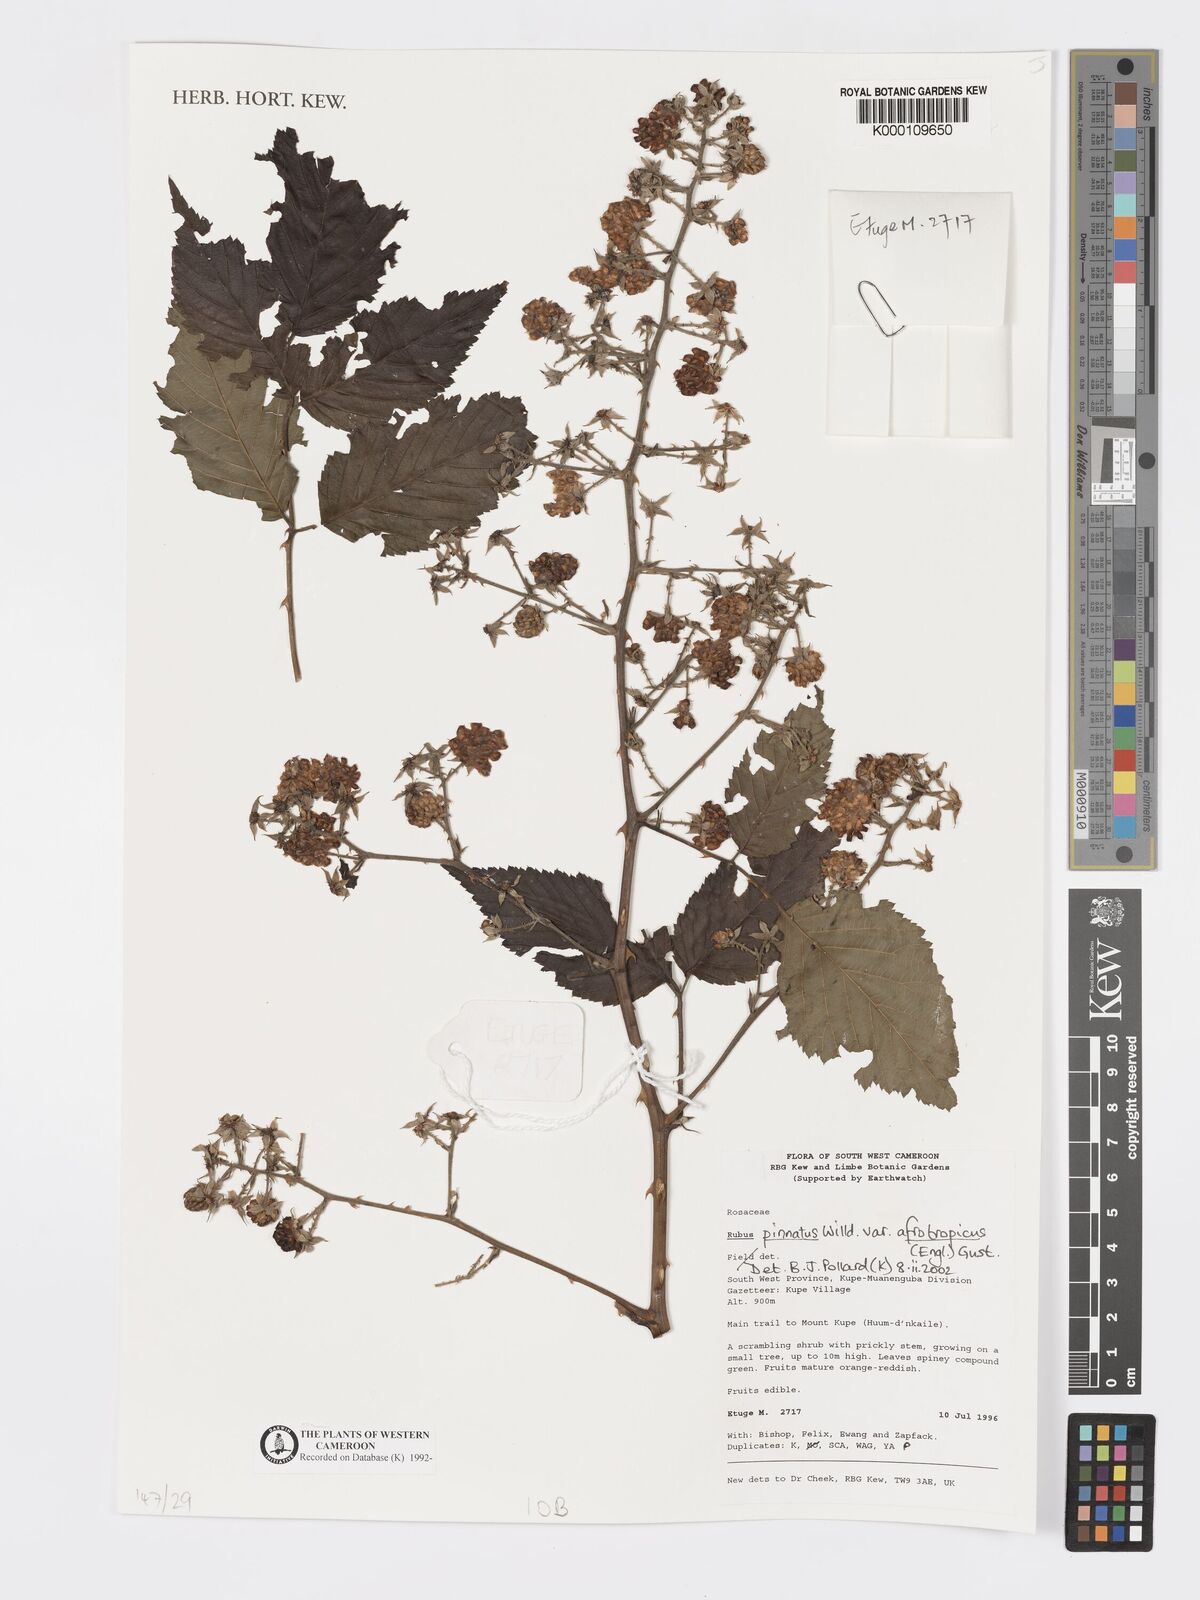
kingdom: Plantae
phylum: Tracheophyta
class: Magnoliopsida
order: Rosales
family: Rosaceae
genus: Rubus
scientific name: Rubus pinnatus
